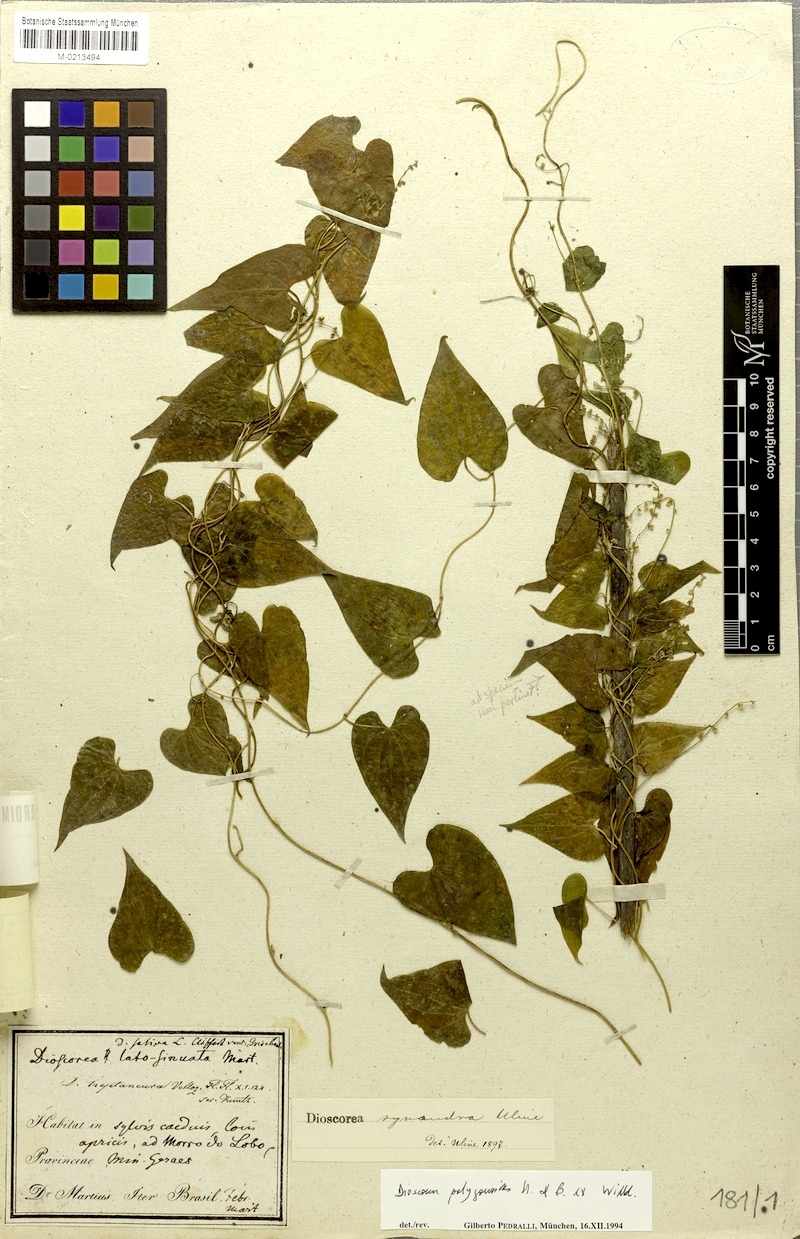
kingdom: Plantae
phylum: Tracheophyta
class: Liliopsida
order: Dioscoreales
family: Dioscoreaceae
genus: Dioscorea
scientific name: Dioscorea polygonoides
